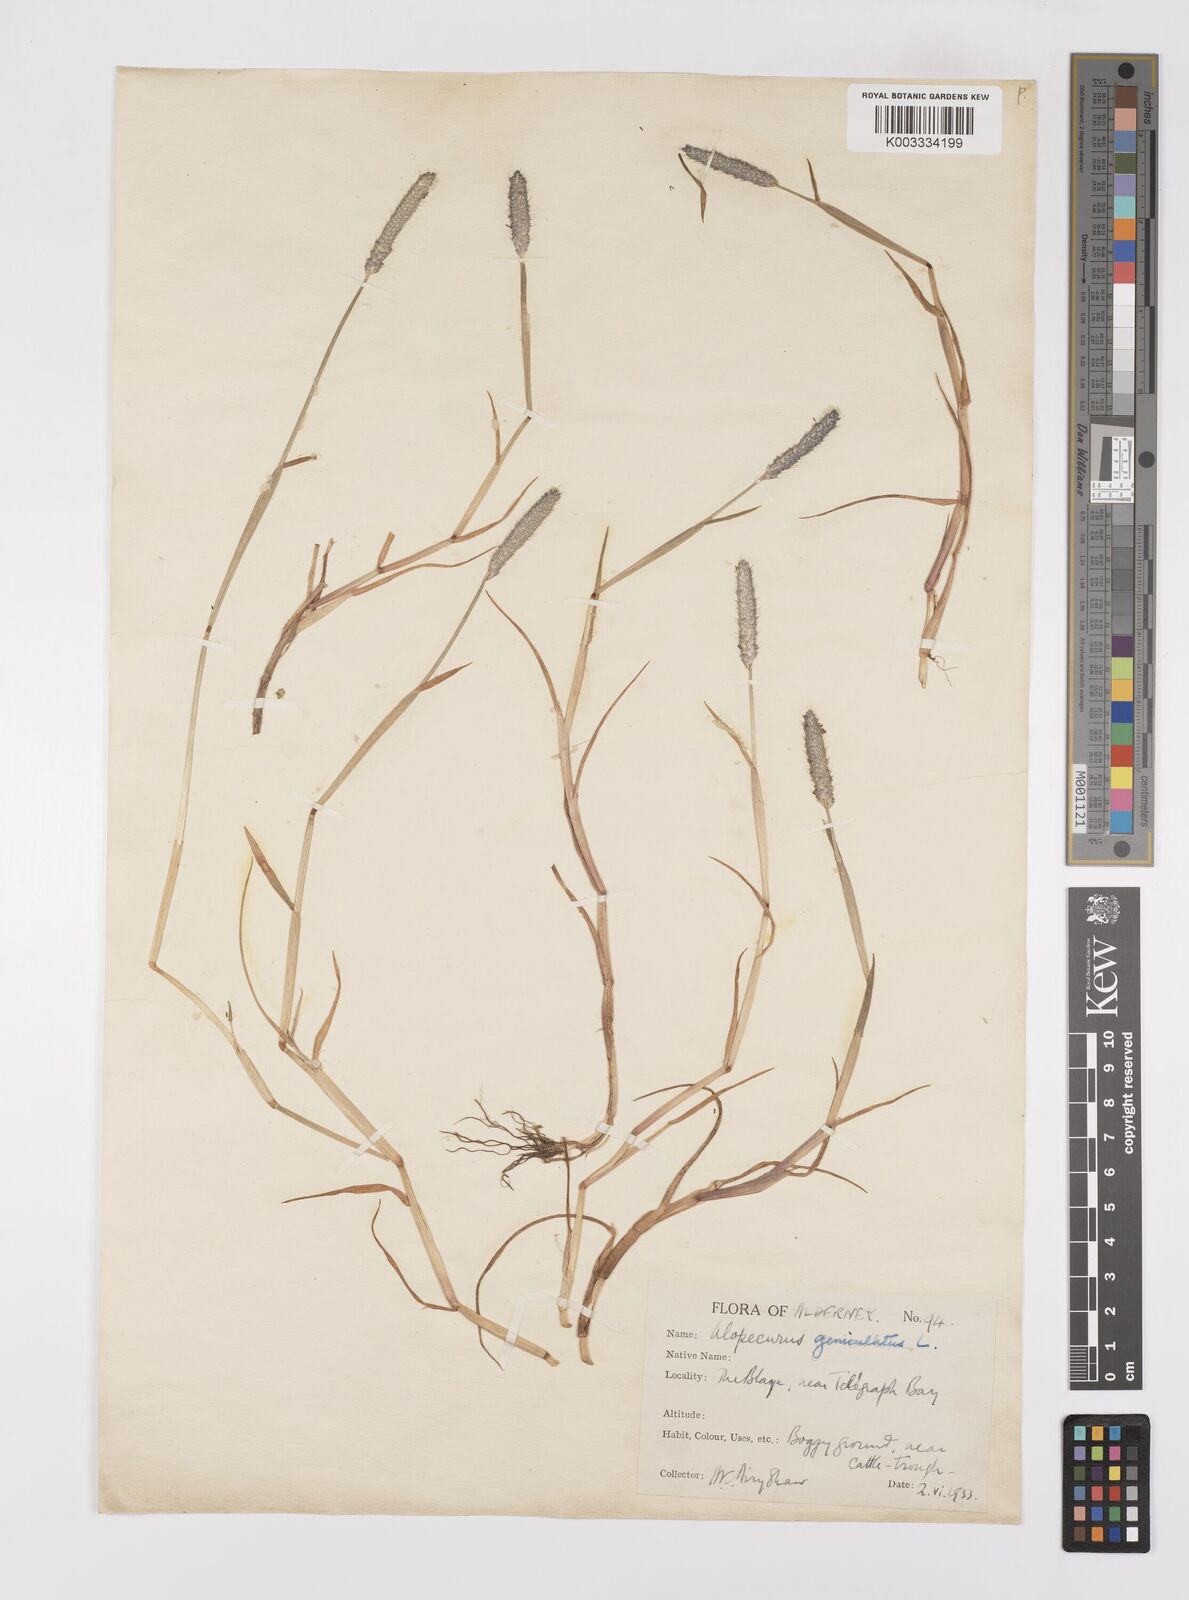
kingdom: Plantae
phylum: Tracheophyta
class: Liliopsida
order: Poales
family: Poaceae
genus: Alopecurus
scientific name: Alopecurus geniculatus
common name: Water foxtail
